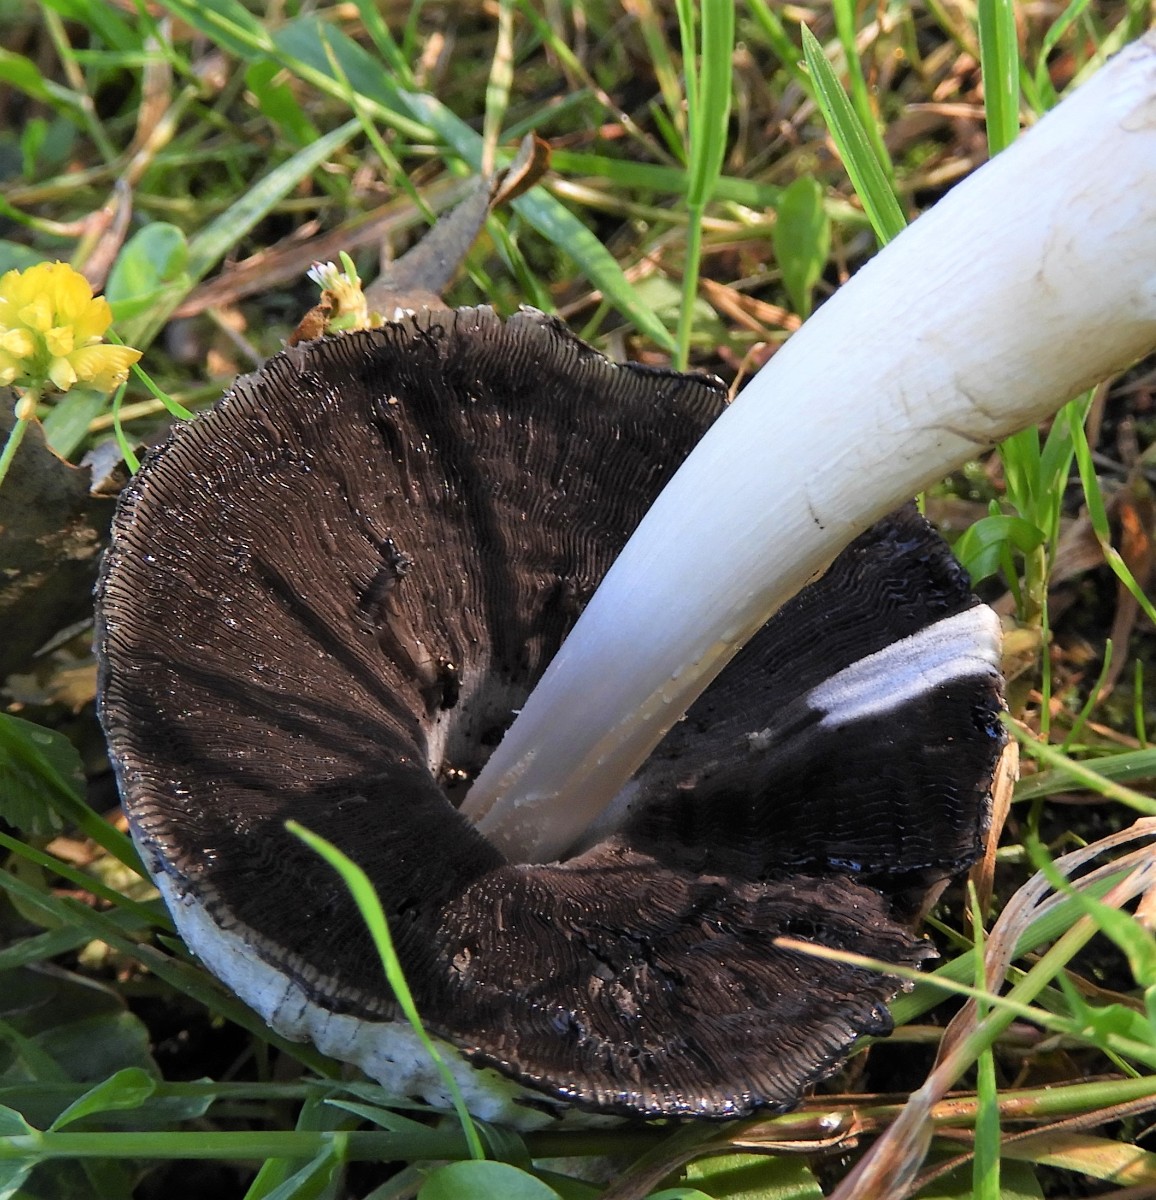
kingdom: Fungi
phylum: Basidiomycota
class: Agaricomycetes
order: Agaricales
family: Psathyrellaceae
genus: Coprinopsis
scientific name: Coprinopsis atramentaria
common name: almindelig blækhat
